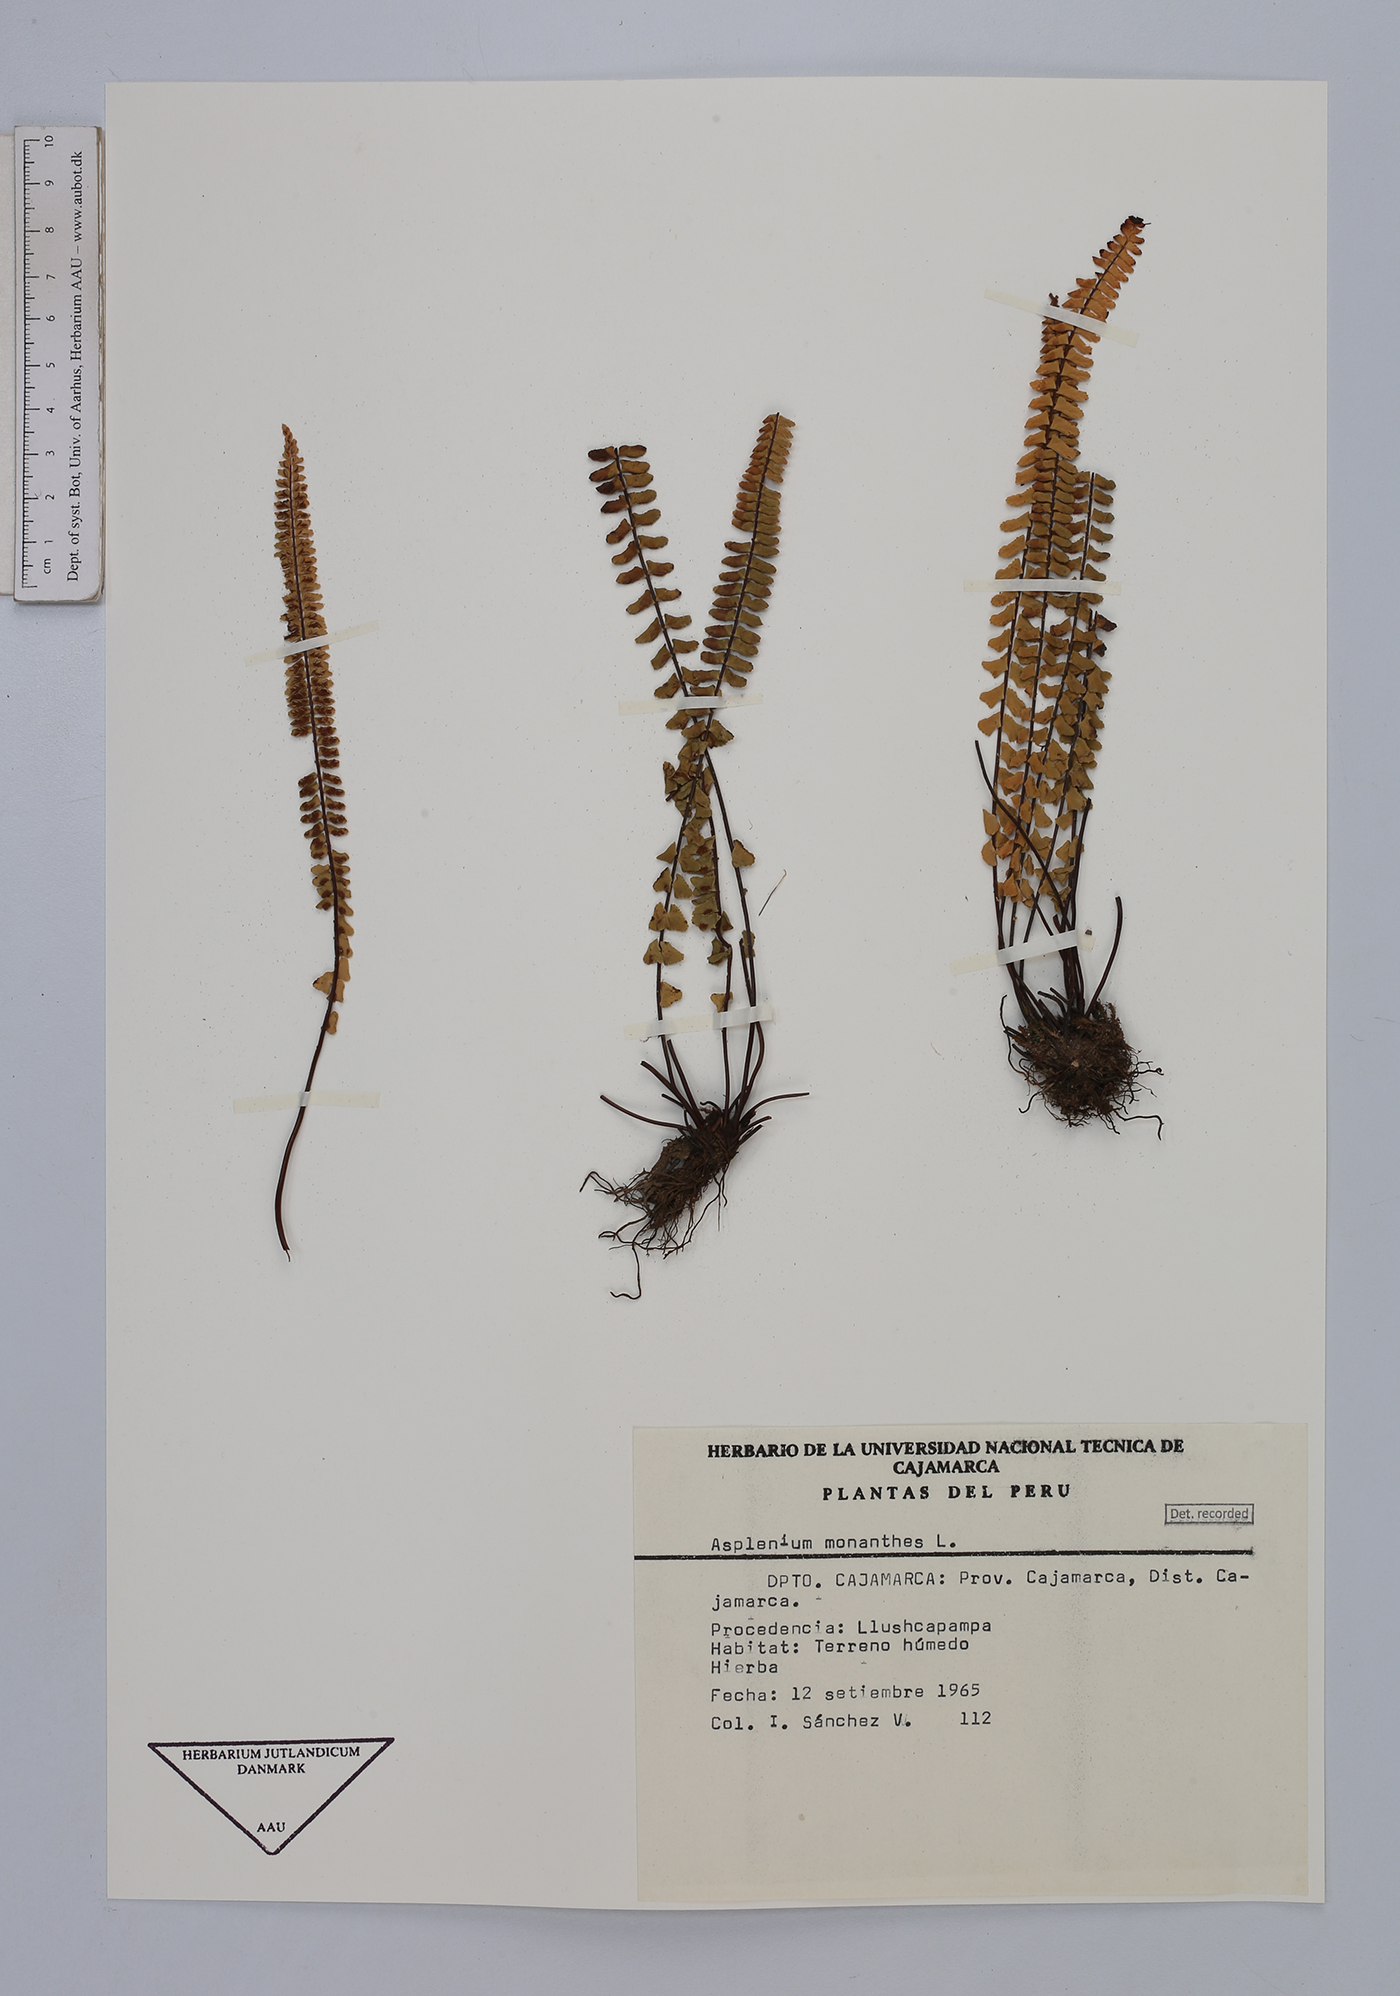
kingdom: Plantae
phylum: Tracheophyta
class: Polypodiopsida
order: Polypodiales
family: Aspleniaceae
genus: Asplenium
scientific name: Asplenium monanthes
